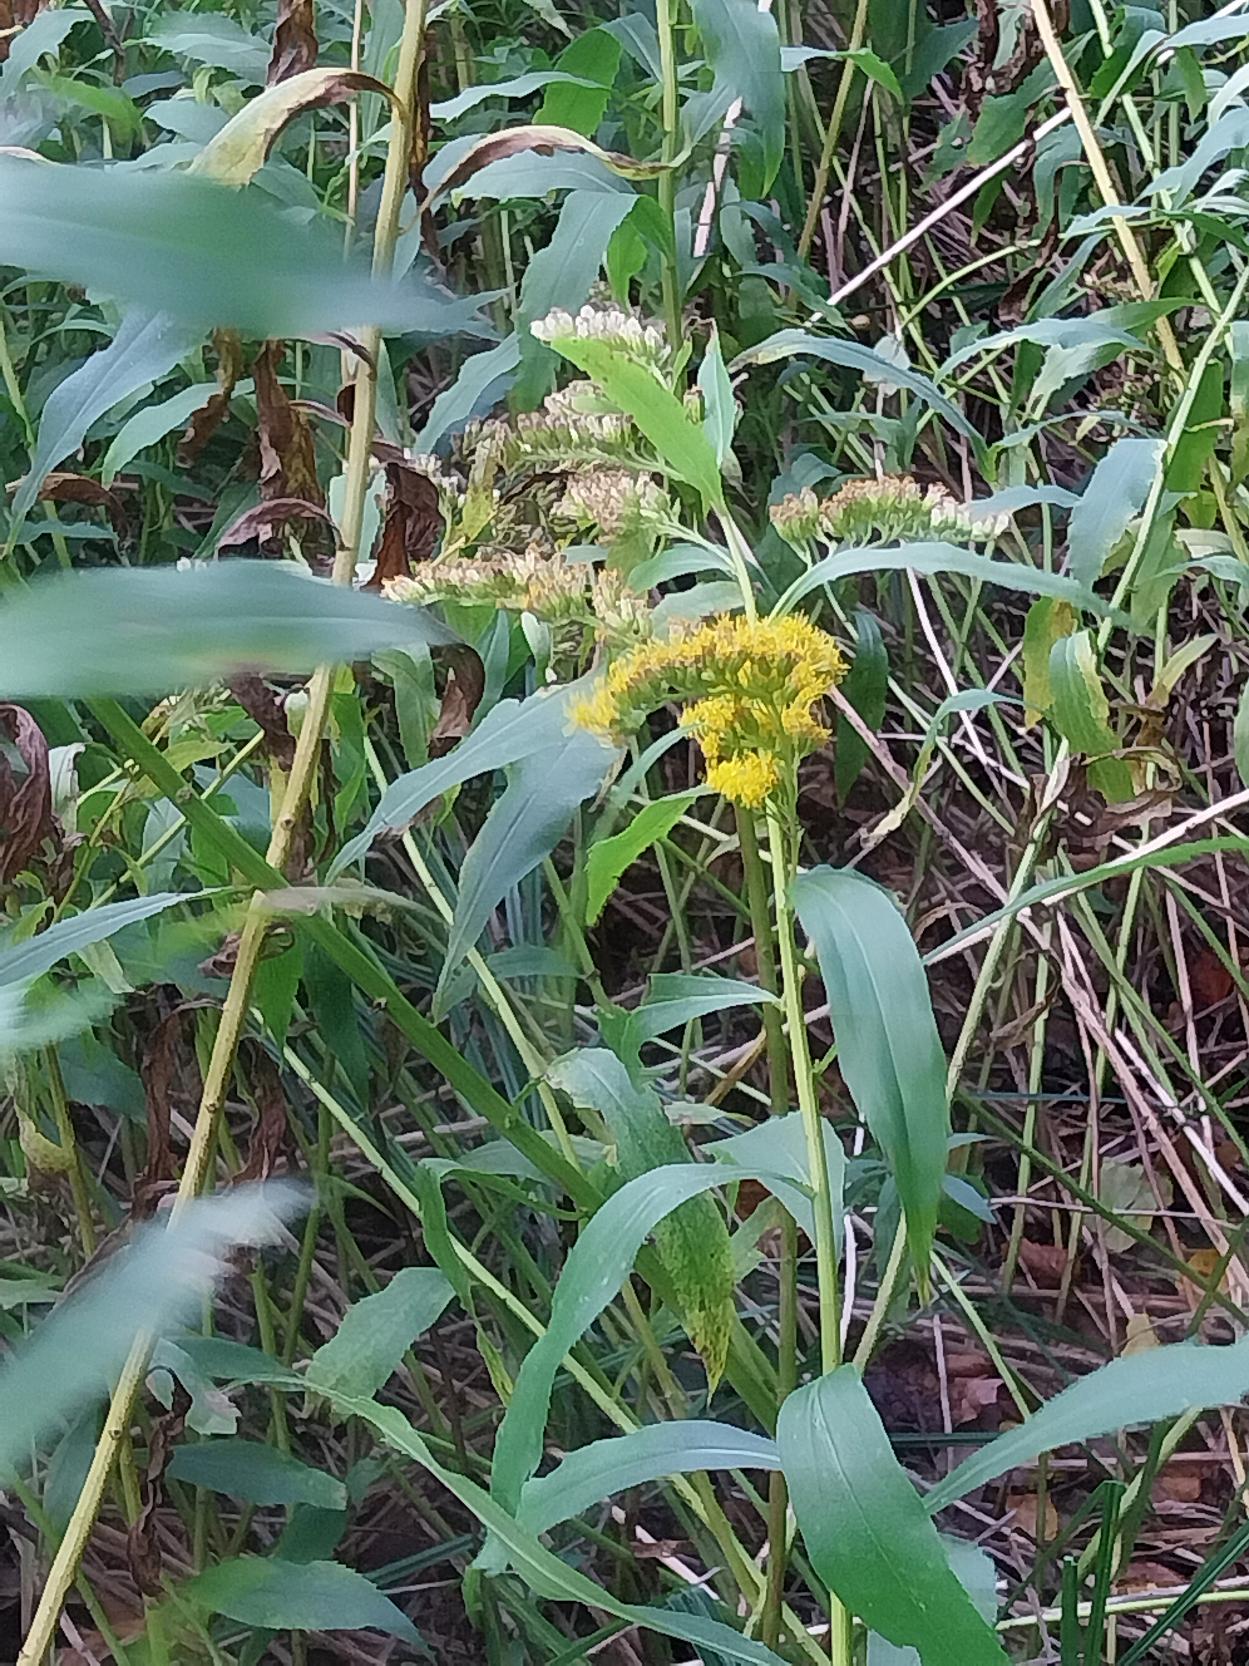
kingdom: Plantae
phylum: Tracheophyta
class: Magnoliopsida
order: Asterales
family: Asteraceae
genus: Solidago
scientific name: Solidago gigantea
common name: Sildig gyldenris
